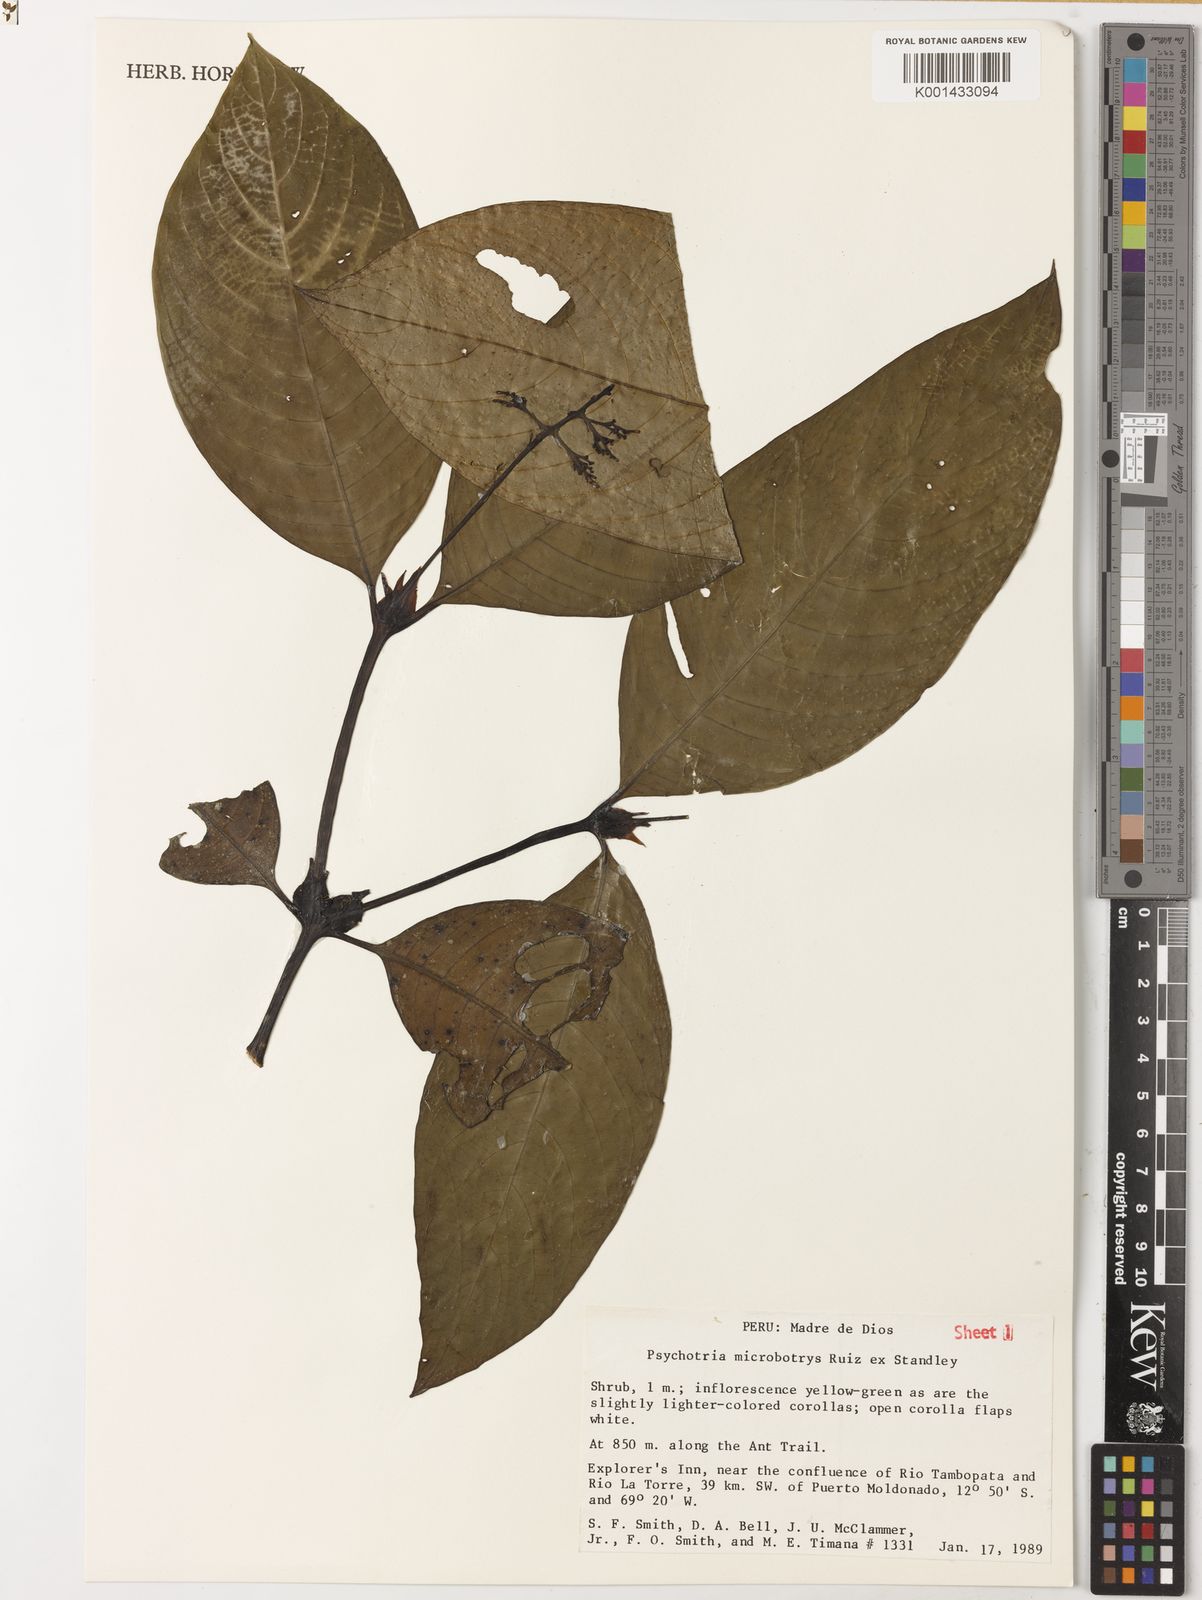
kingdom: Plantae
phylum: Tracheophyta
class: Magnoliopsida
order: Gentianales
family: Rubiaceae
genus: Palicourea
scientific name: Palicourea microbotrys
